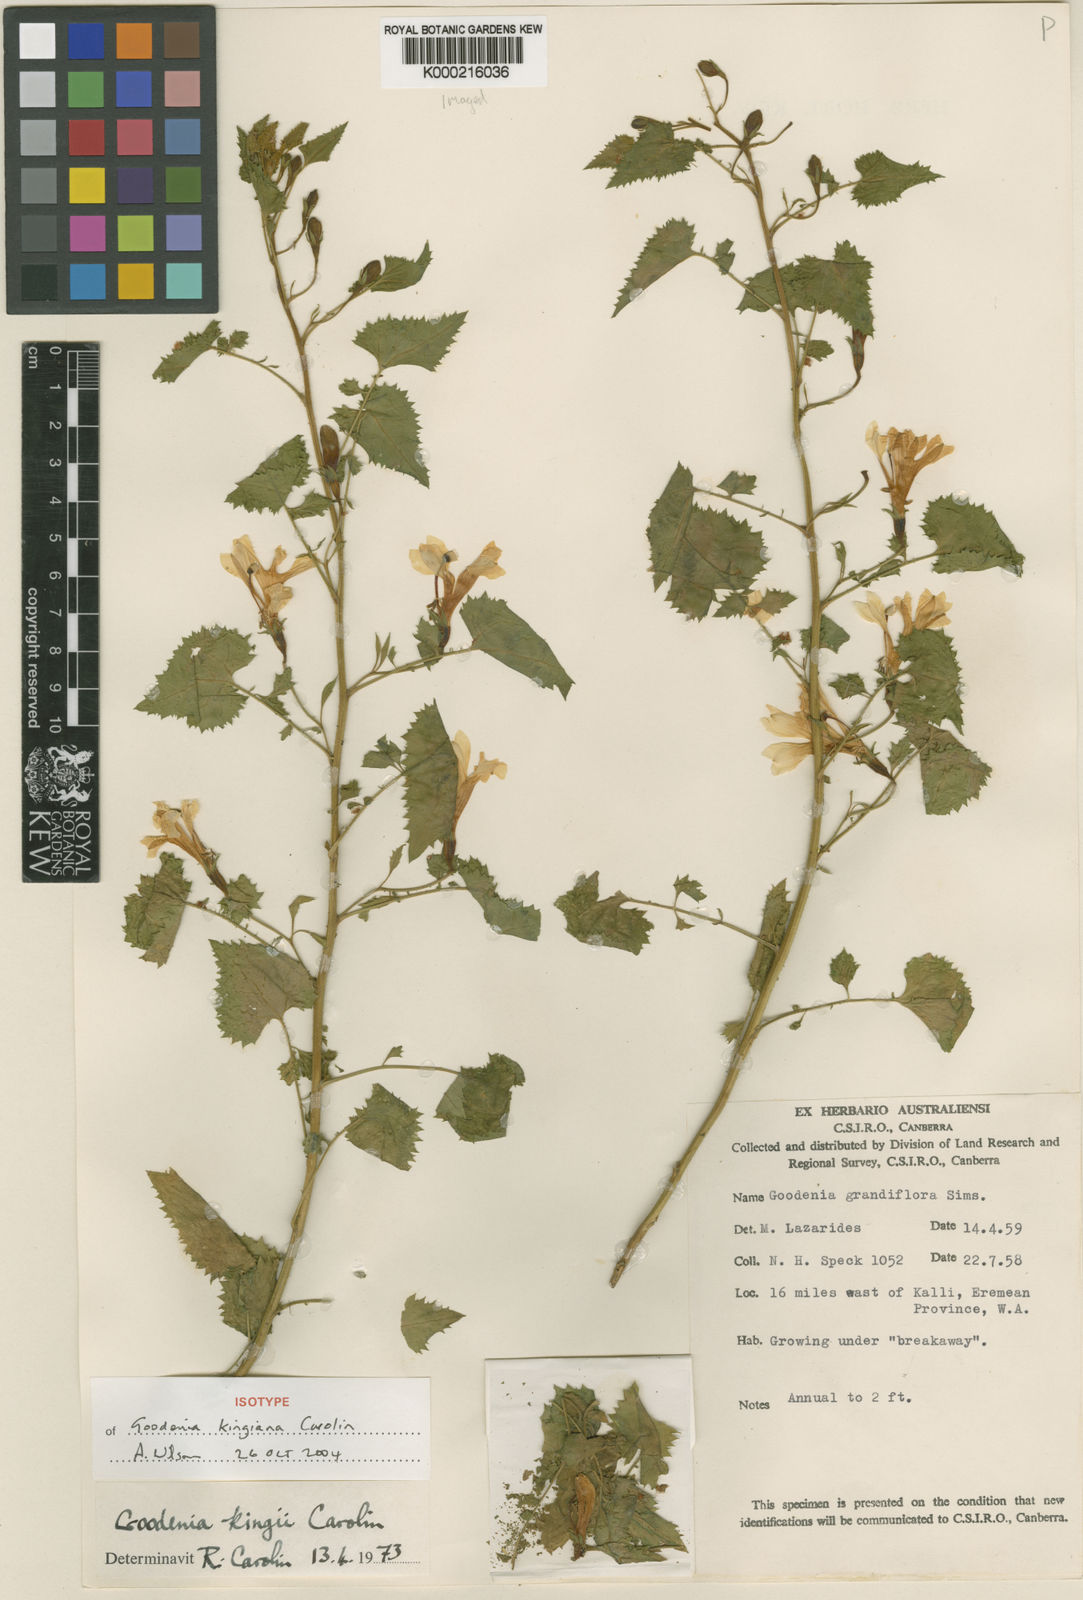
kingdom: Plantae
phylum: Tracheophyta
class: Magnoliopsida
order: Asterales
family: Goodeniaceae
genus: Goodenia
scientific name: Goodenia kingiana
